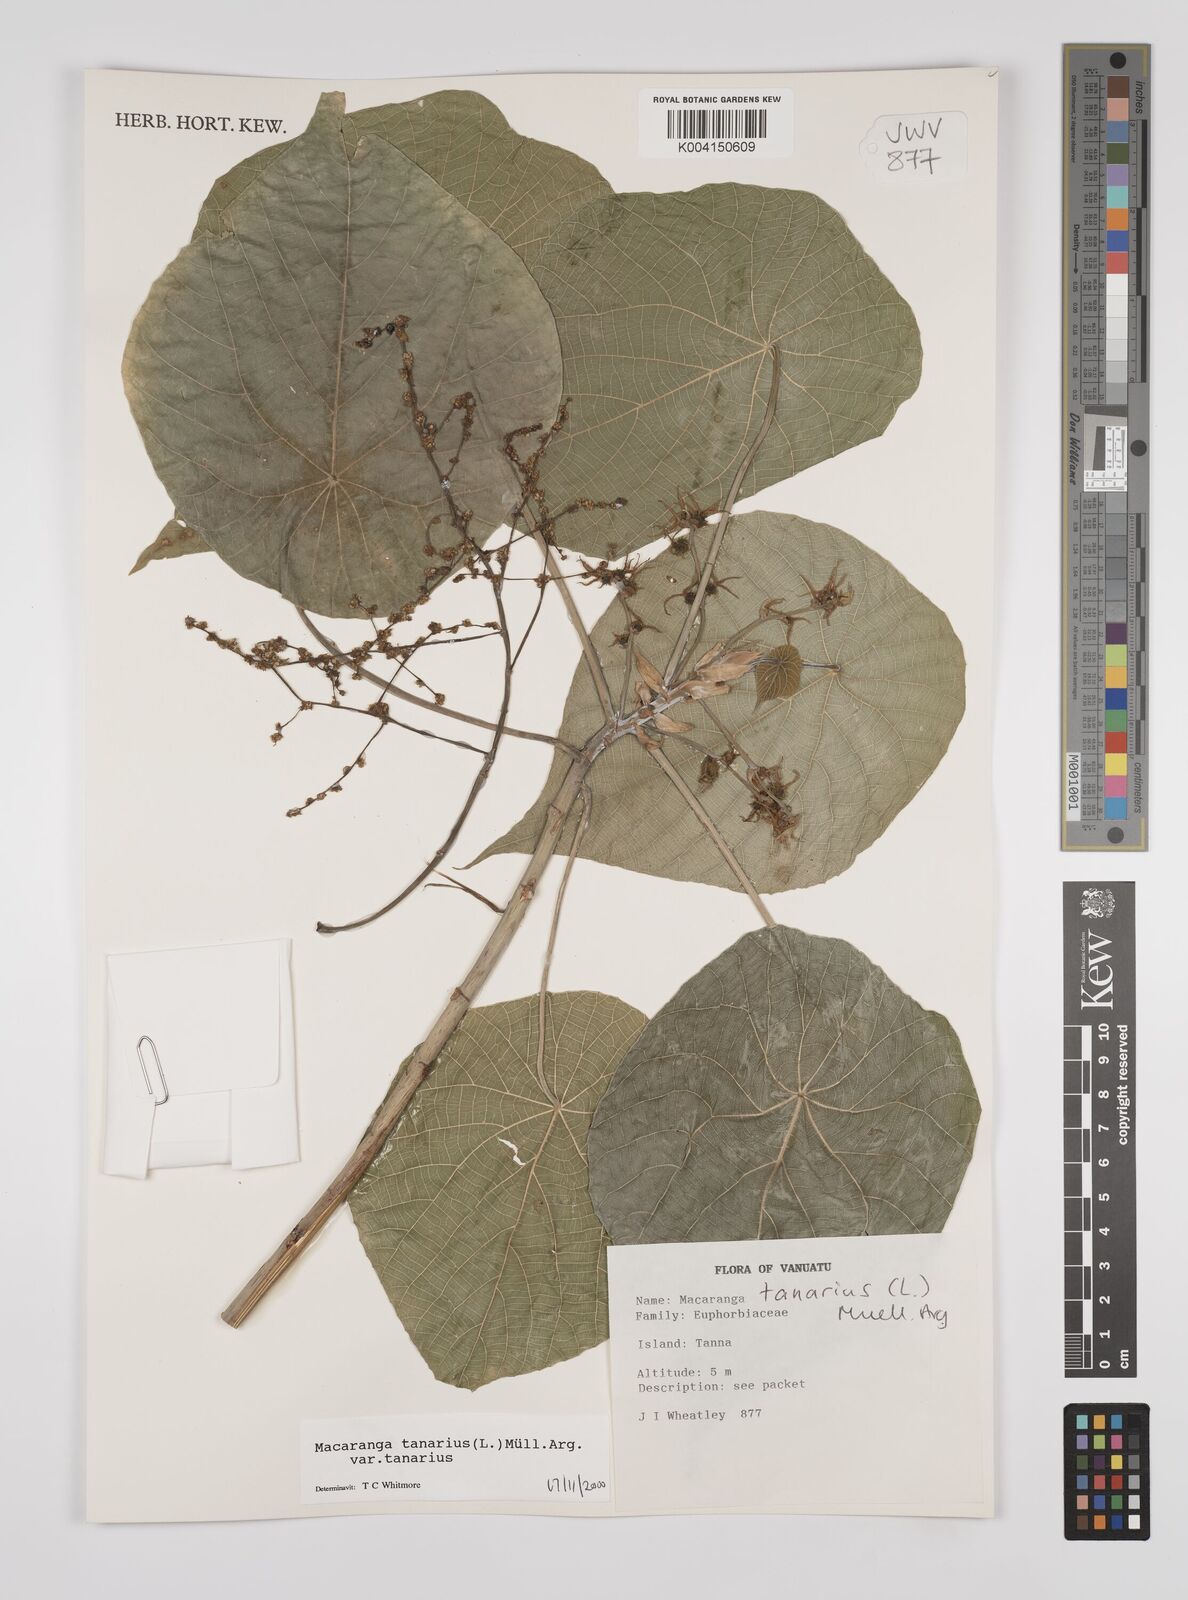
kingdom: Plantae
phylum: Tracheophyta
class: Magnoliopsida
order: Malpighiales
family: Euphorbiaceae
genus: Macaranga
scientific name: Macaranga tanarius
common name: Parasol leaf tree
